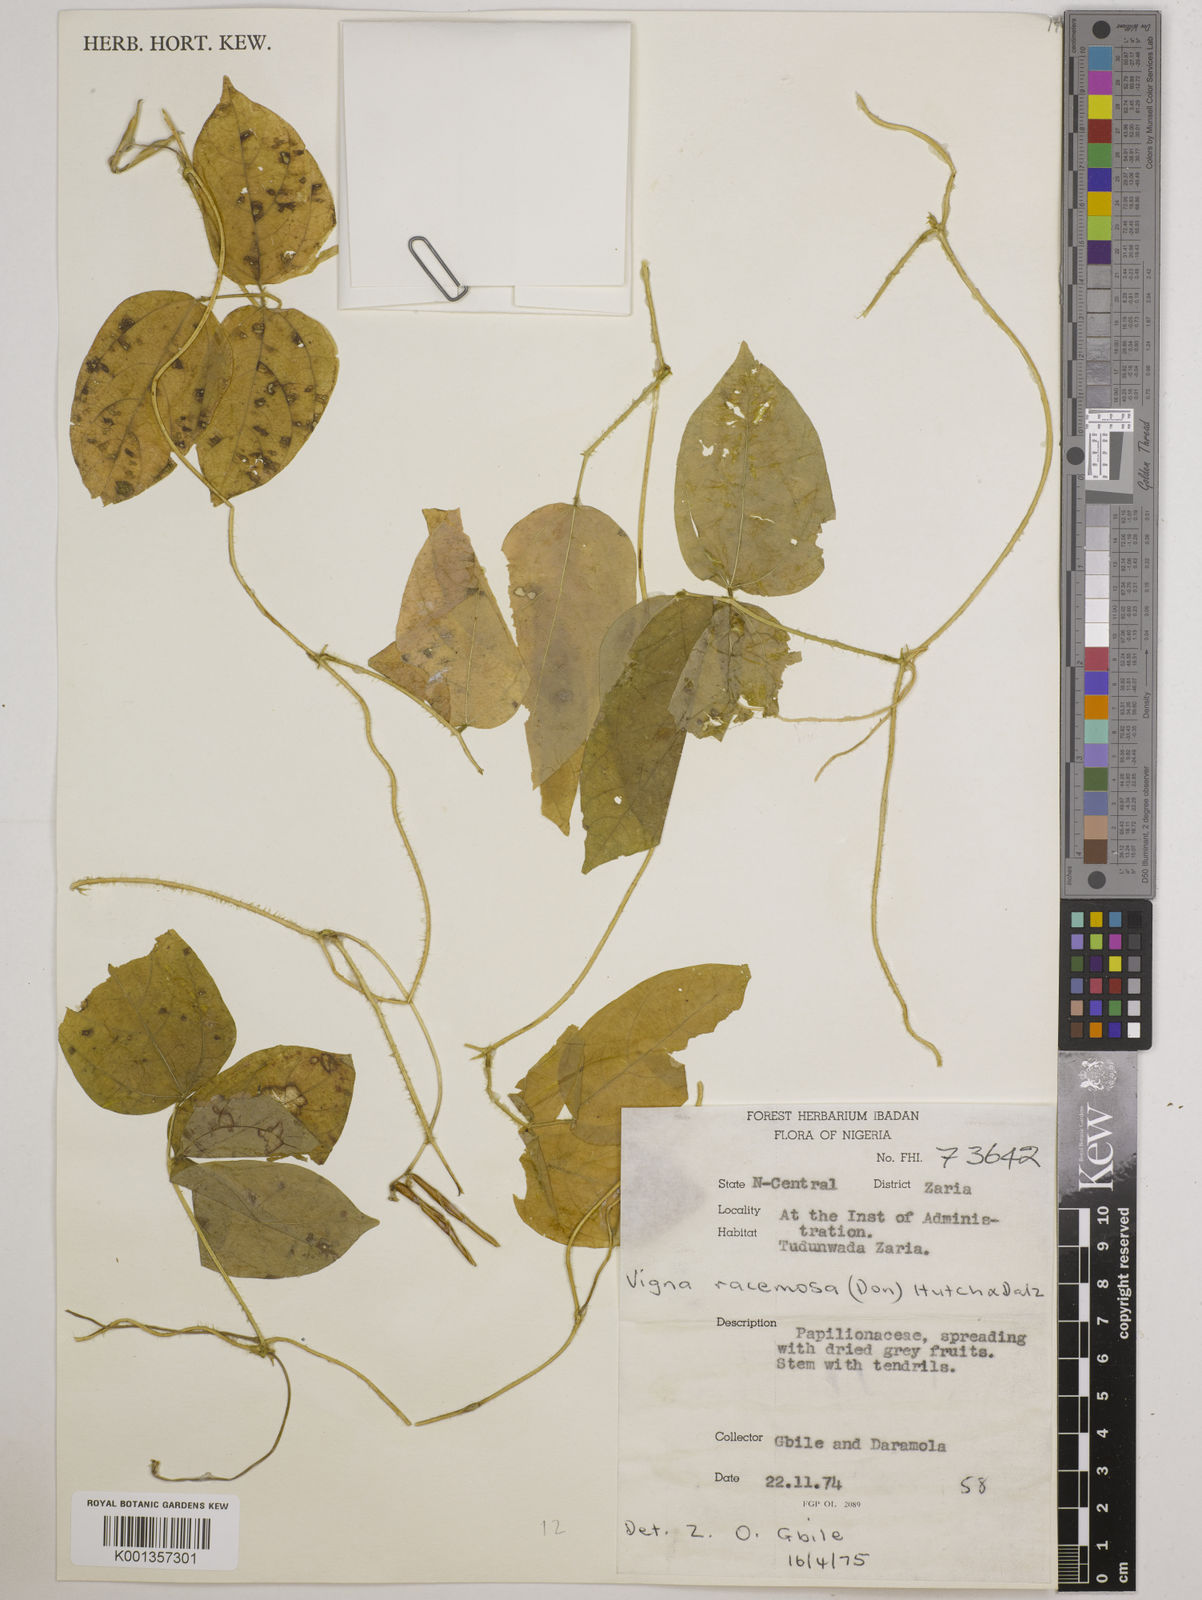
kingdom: Plantae
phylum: Tracheophyta
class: Magnoliopsida
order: Fabales
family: Fabaceae
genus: Vigna
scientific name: Vigna racemosa
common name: Beans not eaten
